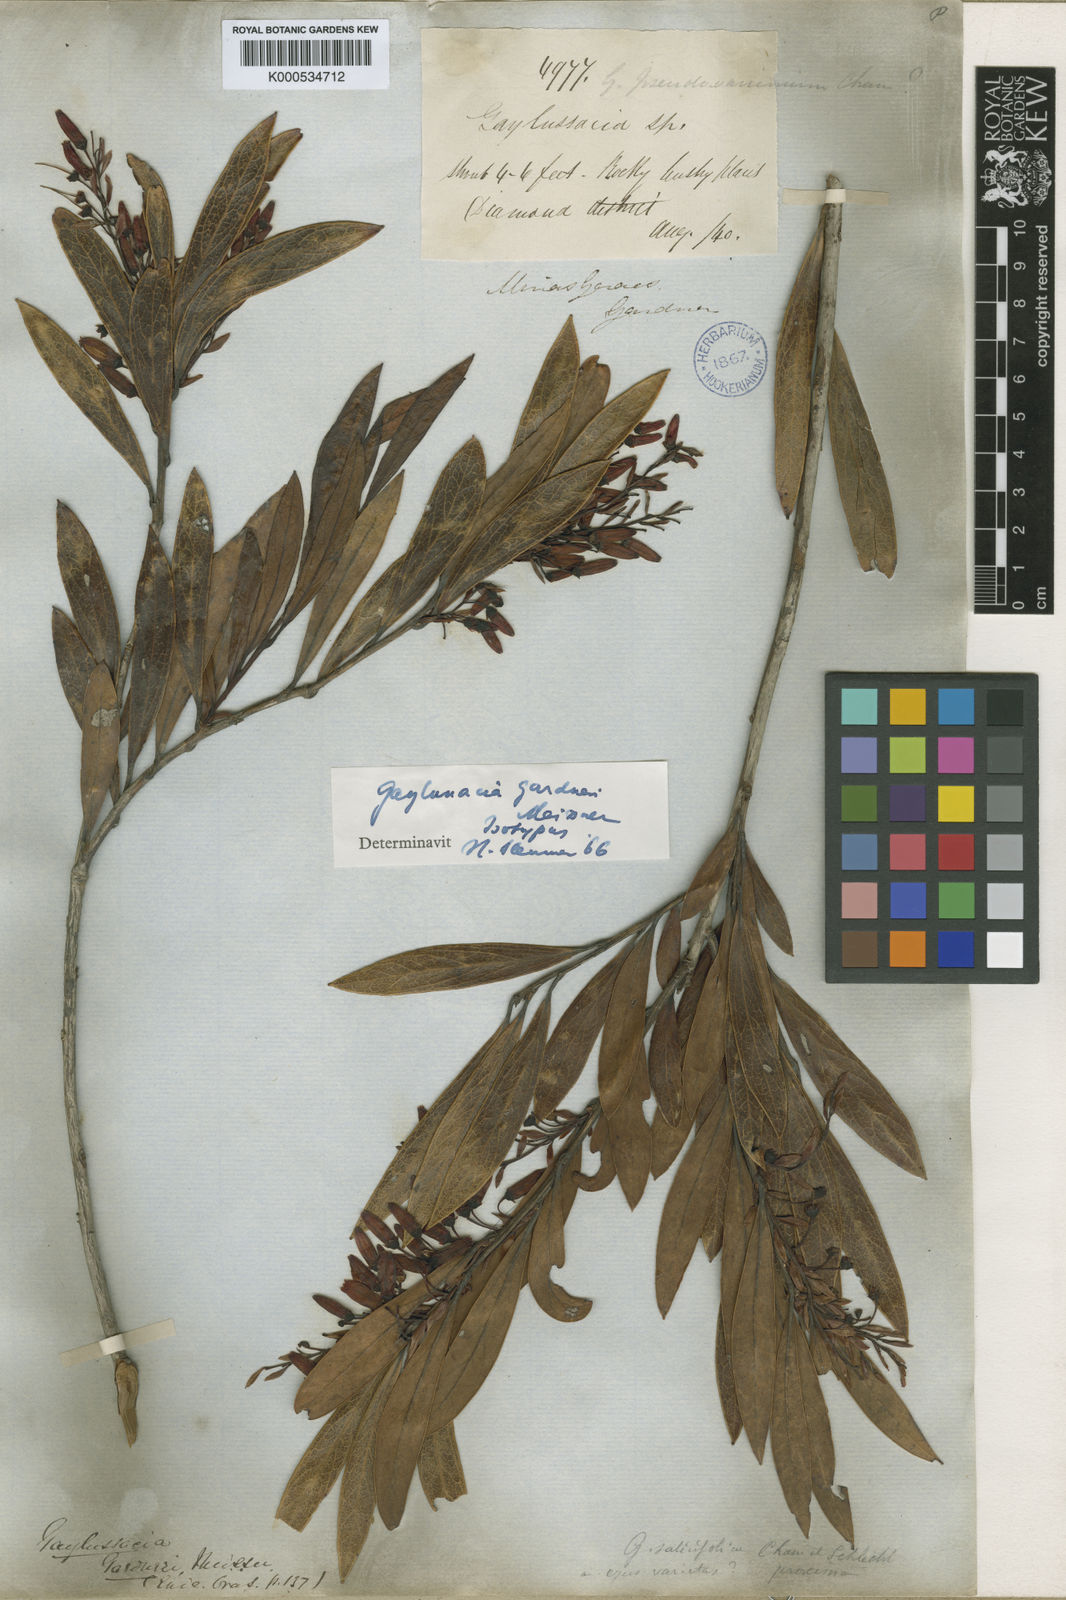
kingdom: Plantae
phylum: Tracheophyta
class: Magnoliopsida
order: Ericales
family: Ericaceae
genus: Gaylussacia
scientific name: Gaylussacia gardneri
